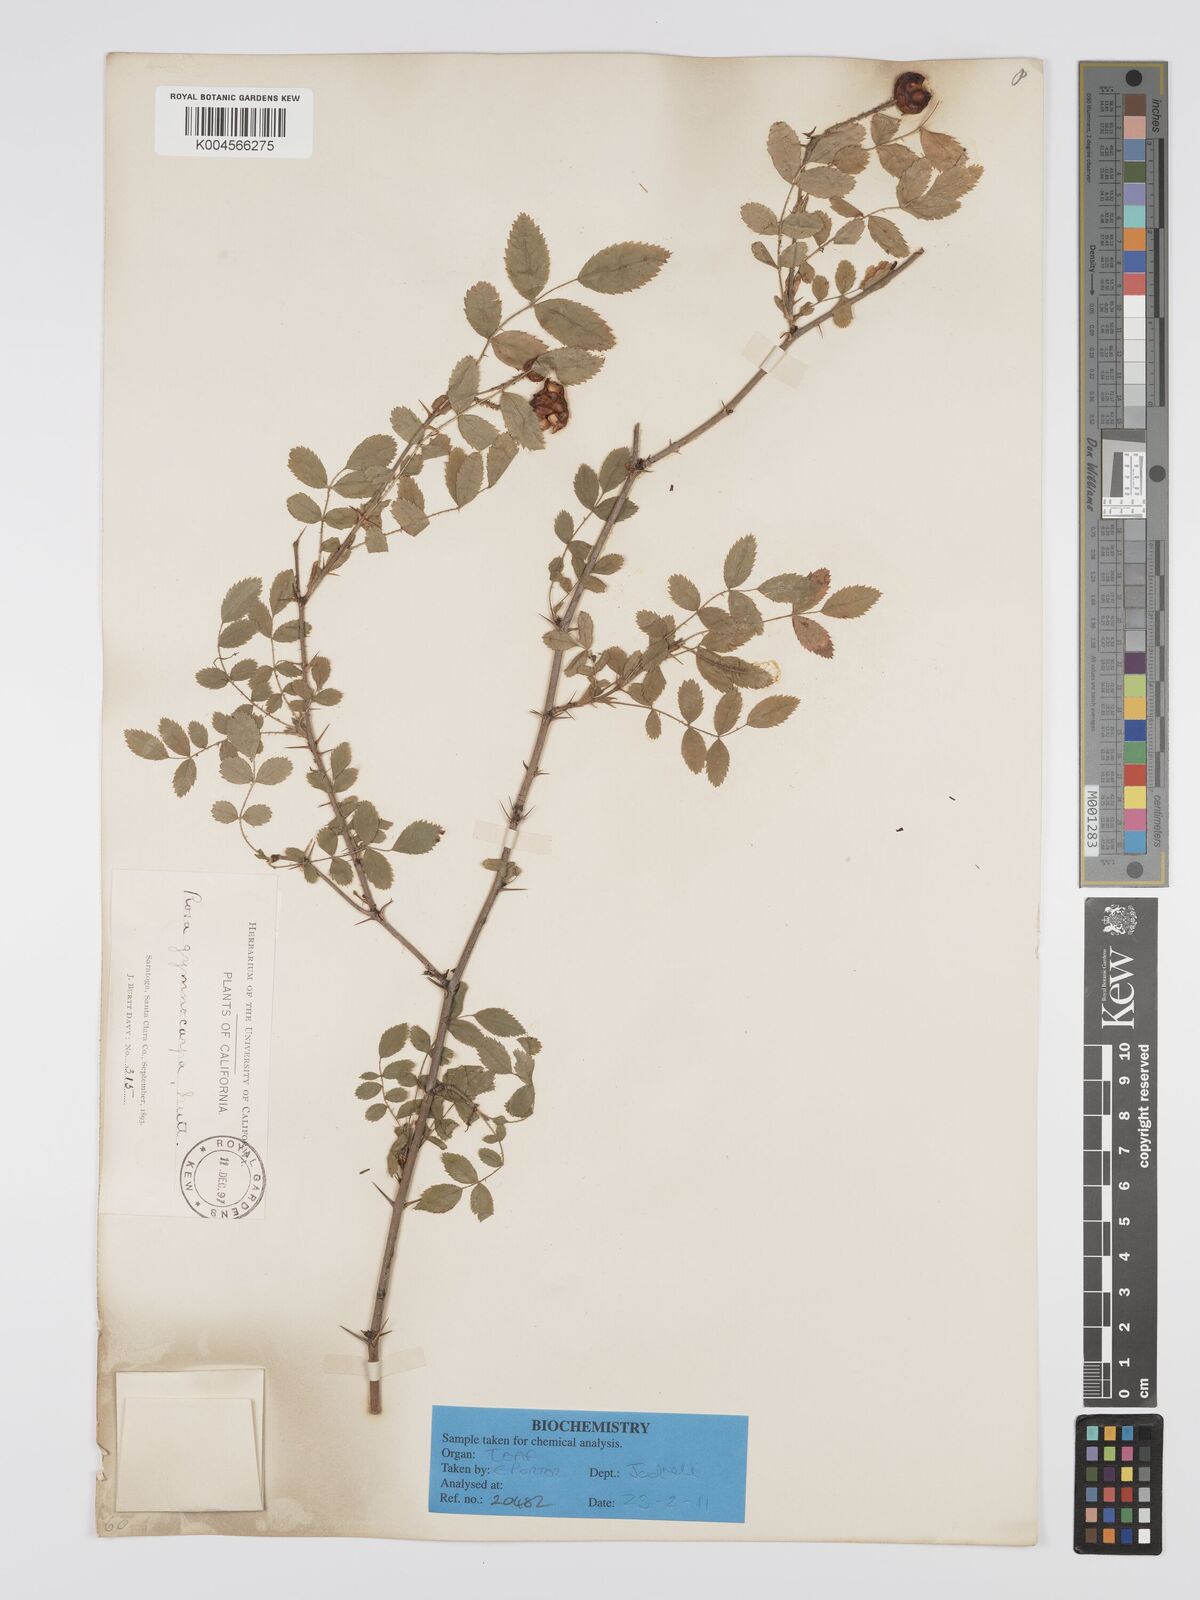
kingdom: Plantae
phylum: Tracheophyta
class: Magnoliopsida
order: Rosales
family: Rosaceae
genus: Rosa
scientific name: Rosa gymnocarpa
